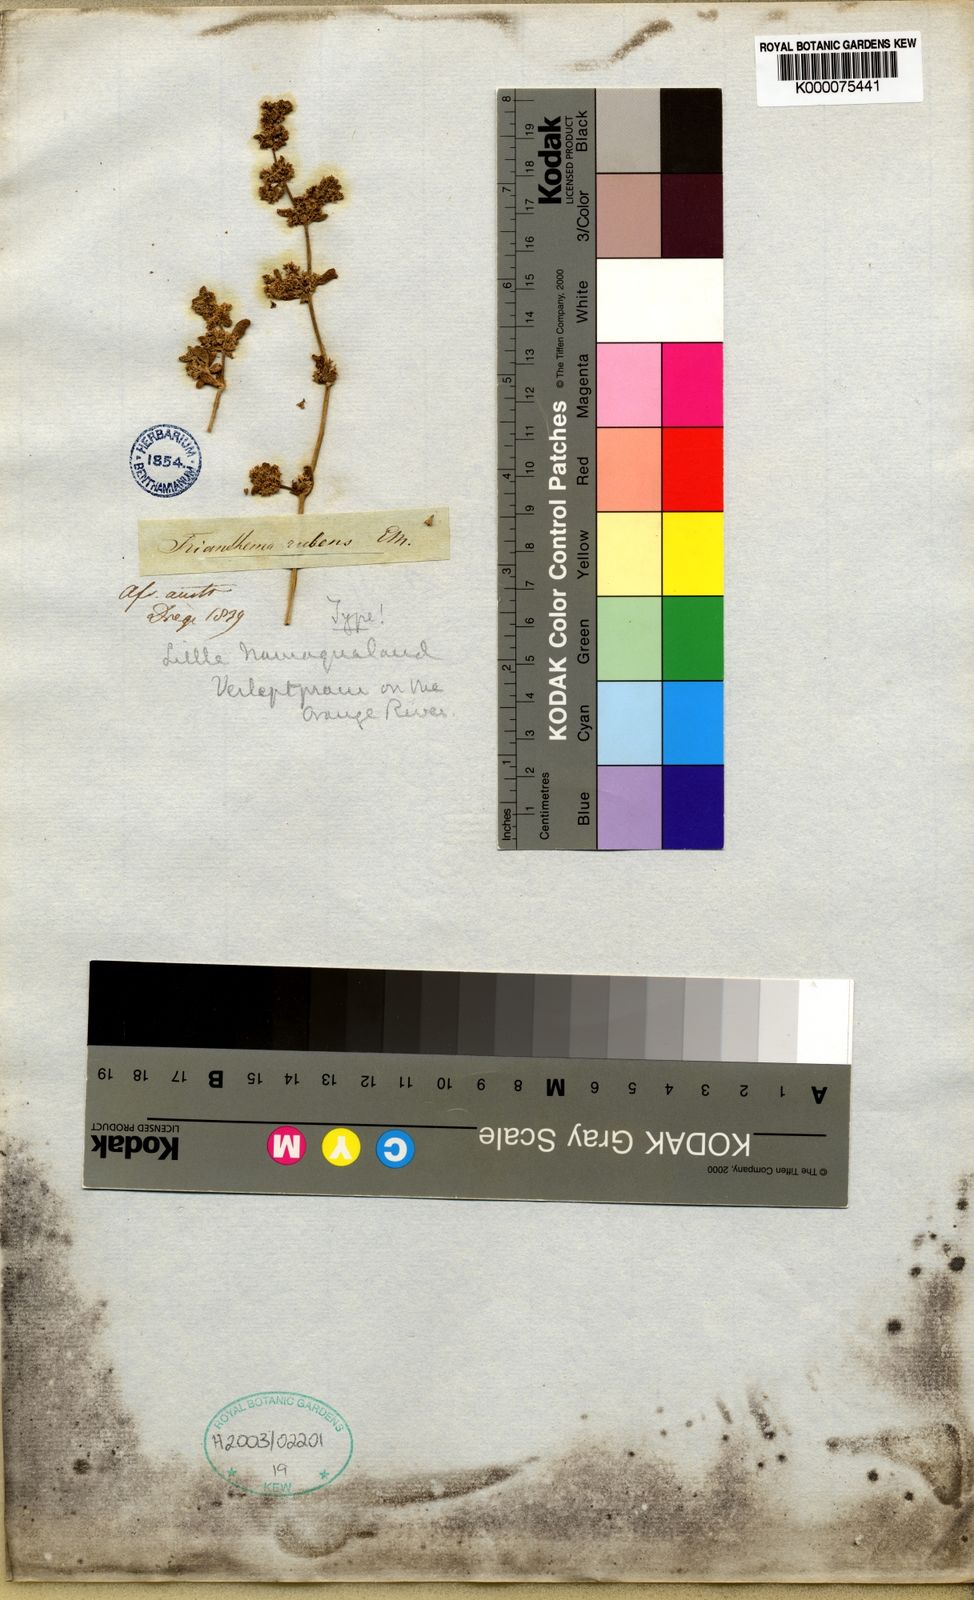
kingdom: Plantae
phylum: Tracheophyta
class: Magnoliopsida
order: Caryophyllales
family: Aizoaceae
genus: Trianthema
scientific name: Trianthema corymbosum
